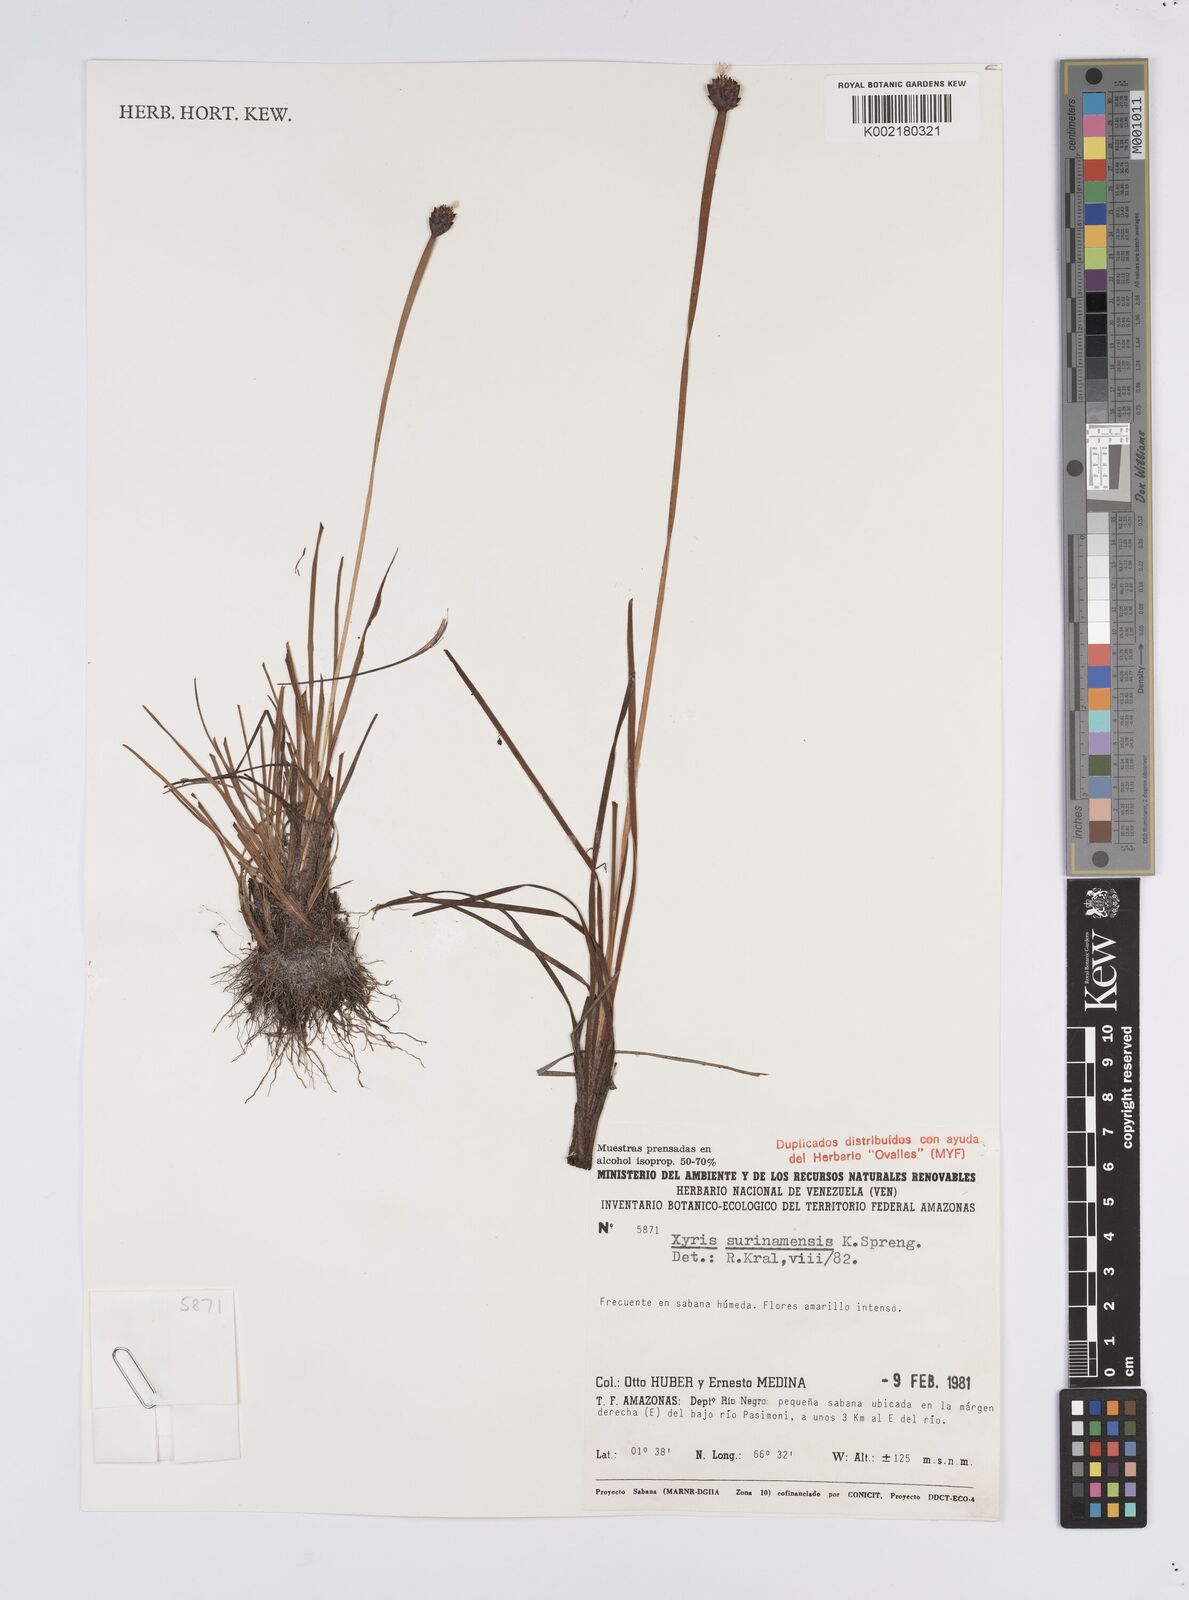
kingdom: Plantae
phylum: Tracheophyta
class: Liliopsida
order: Poales
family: Xyridaceae
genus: Xyris
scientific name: Xyris surinamensis
